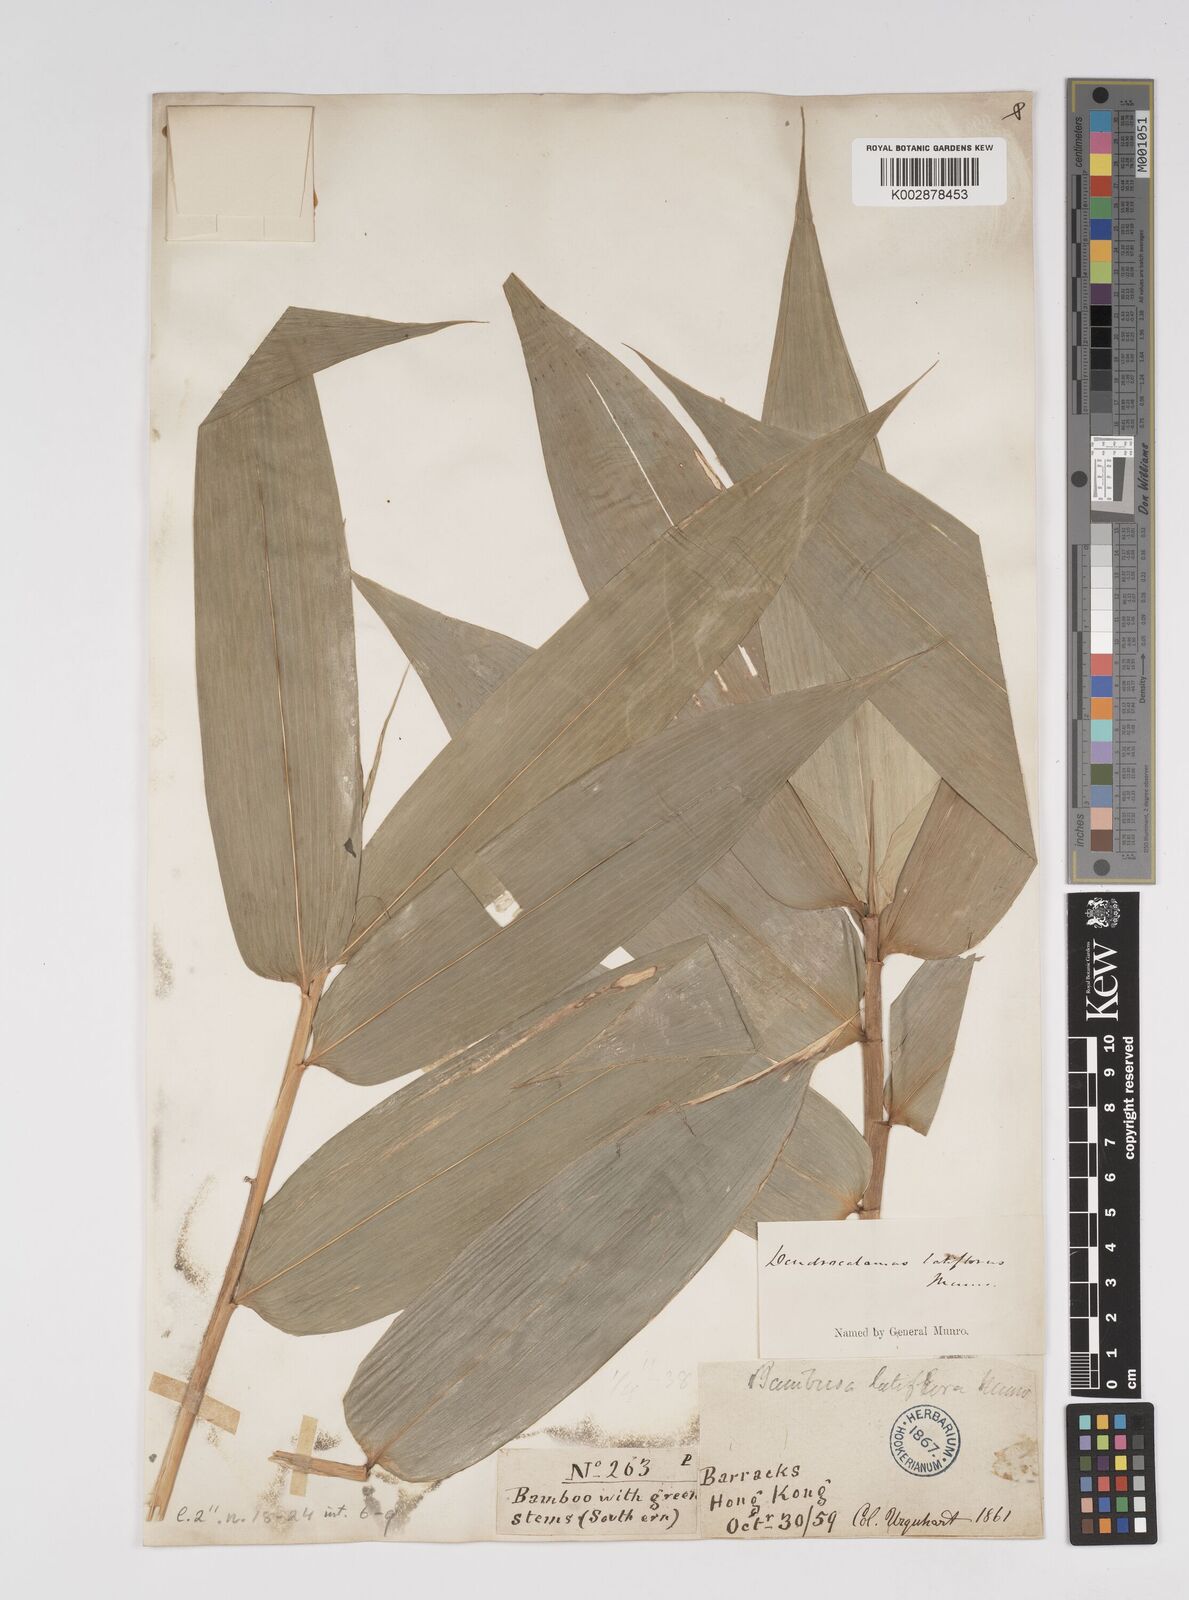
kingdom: Plantae
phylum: Tracheophyta
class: Liliopsida
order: Poales
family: Poaceae
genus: Dendrocalamus
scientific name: Dendrocalamus latiflorus
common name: Giant bamboo
